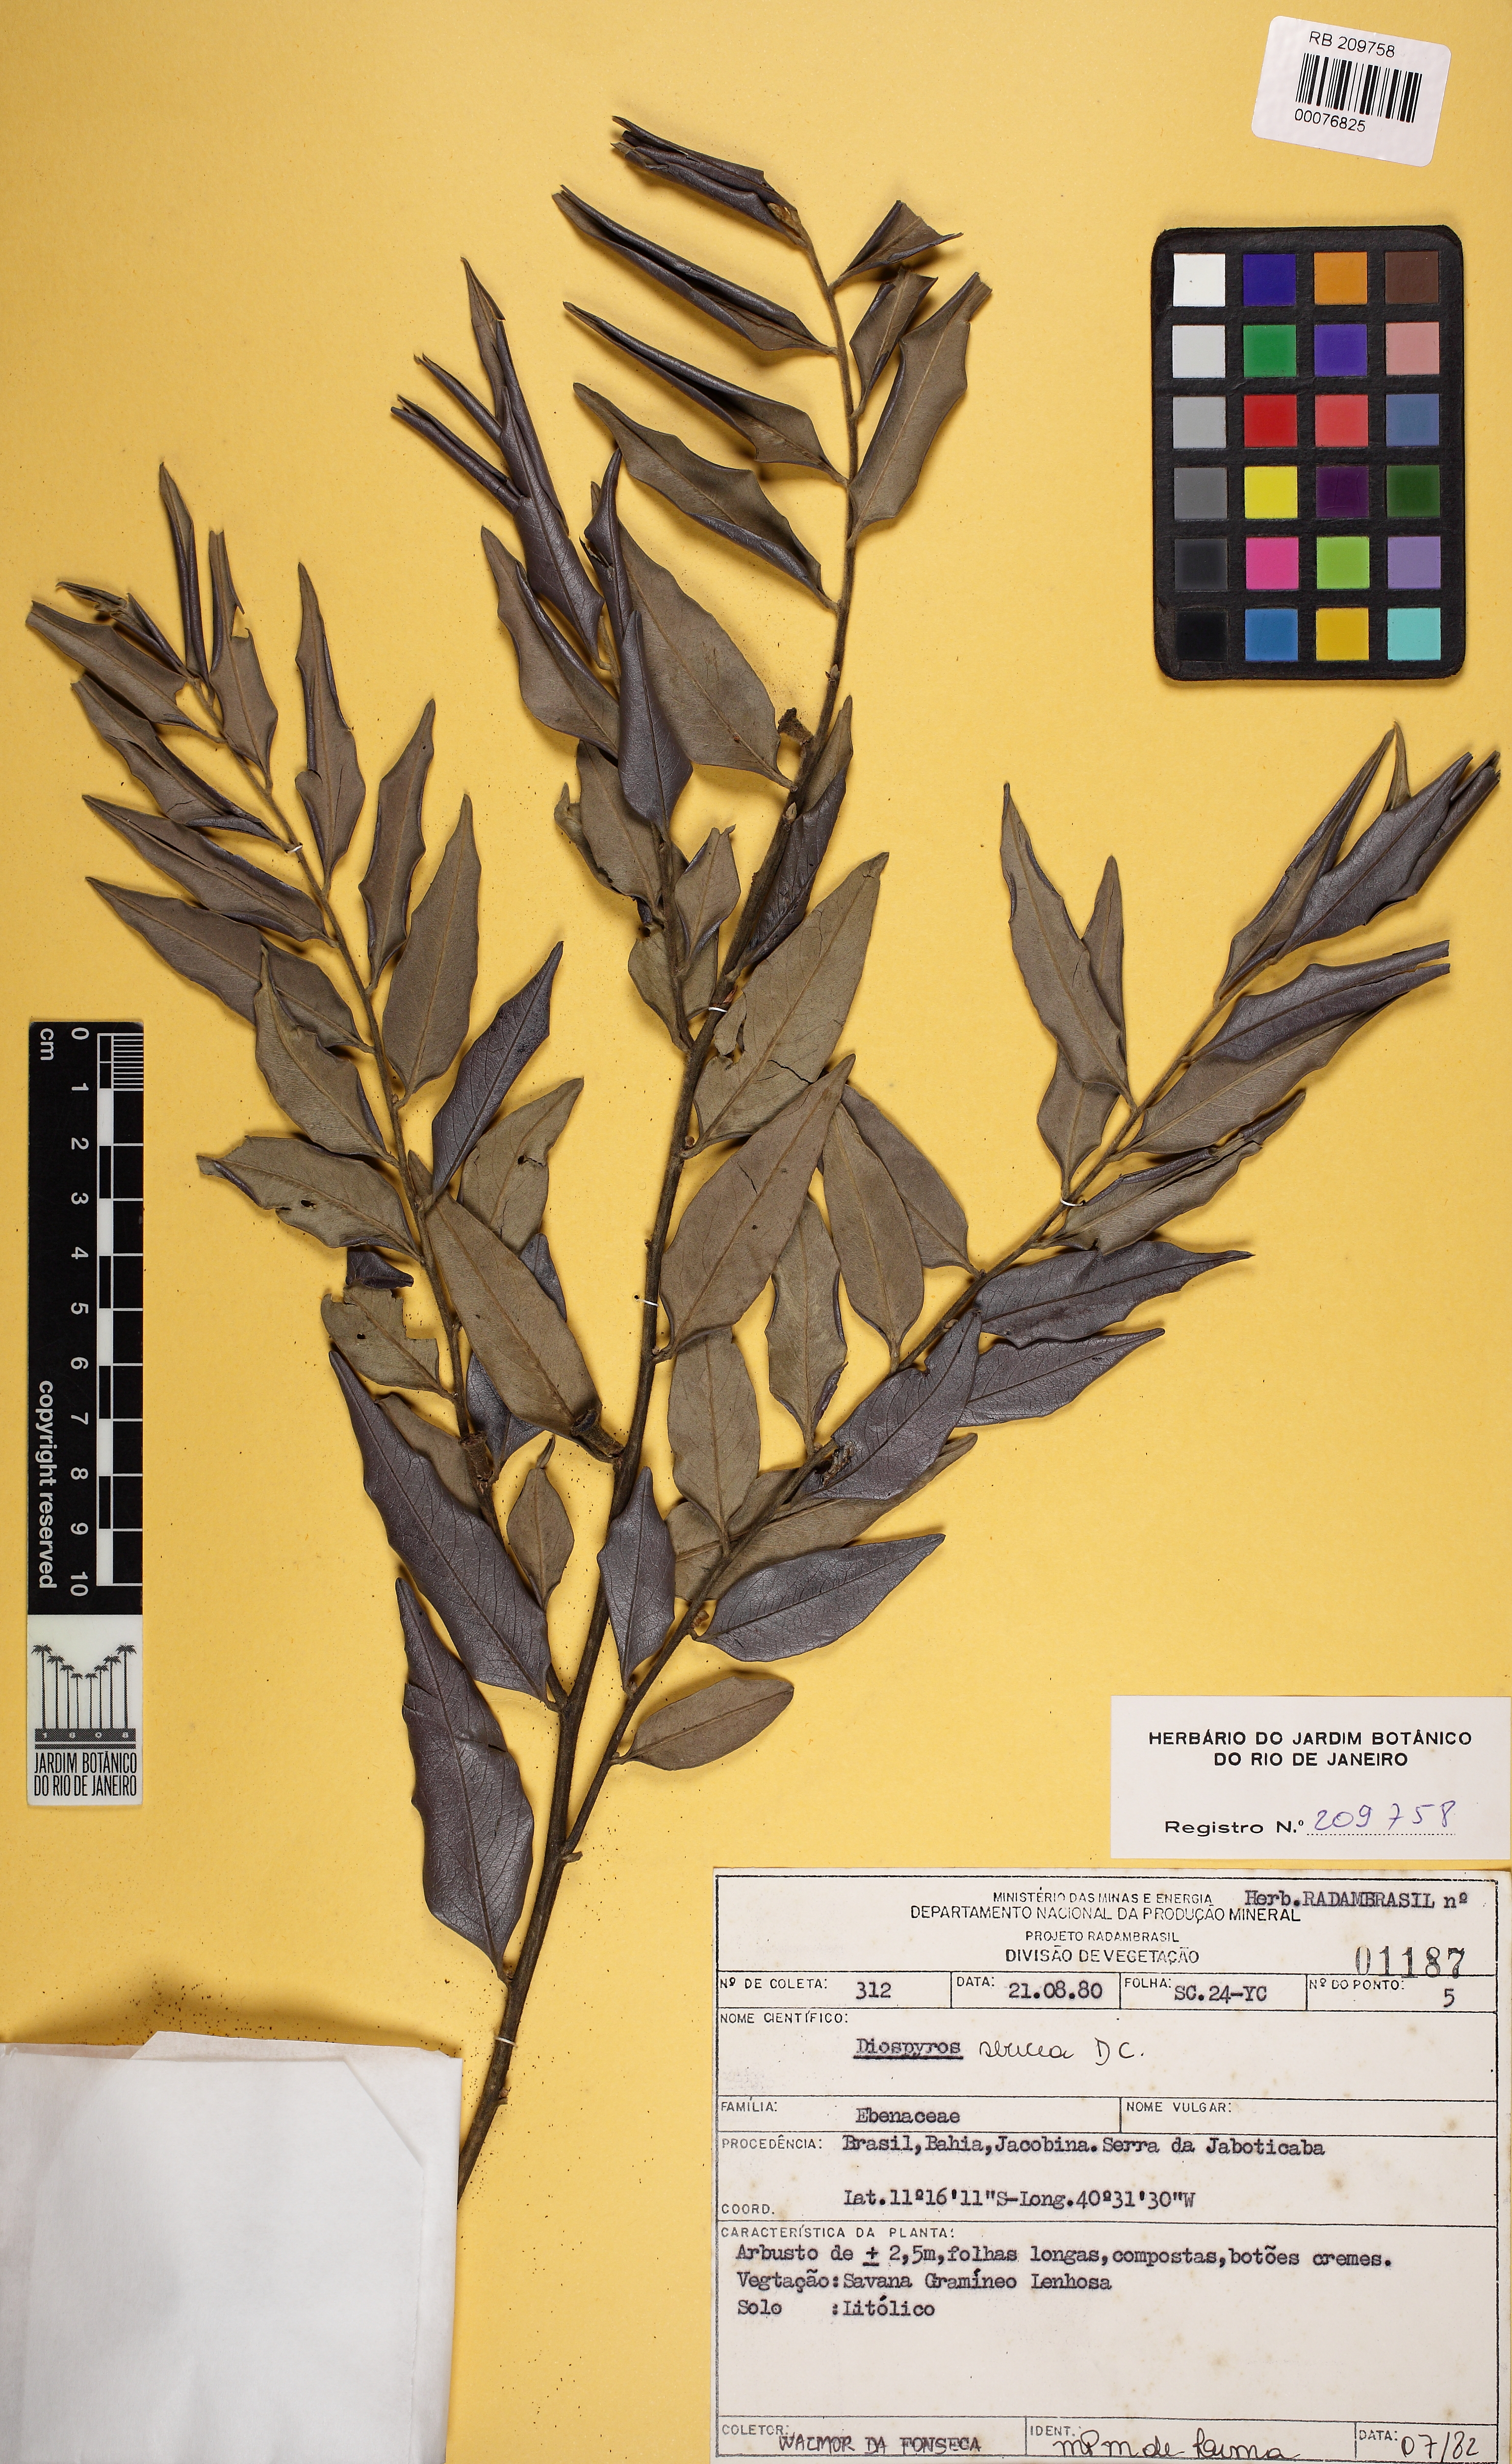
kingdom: Plantae
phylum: Tracheophyta
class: Magnoliopsida
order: Ericales
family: Ebenaceae
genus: Diospyros
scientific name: Diospyros sericea
